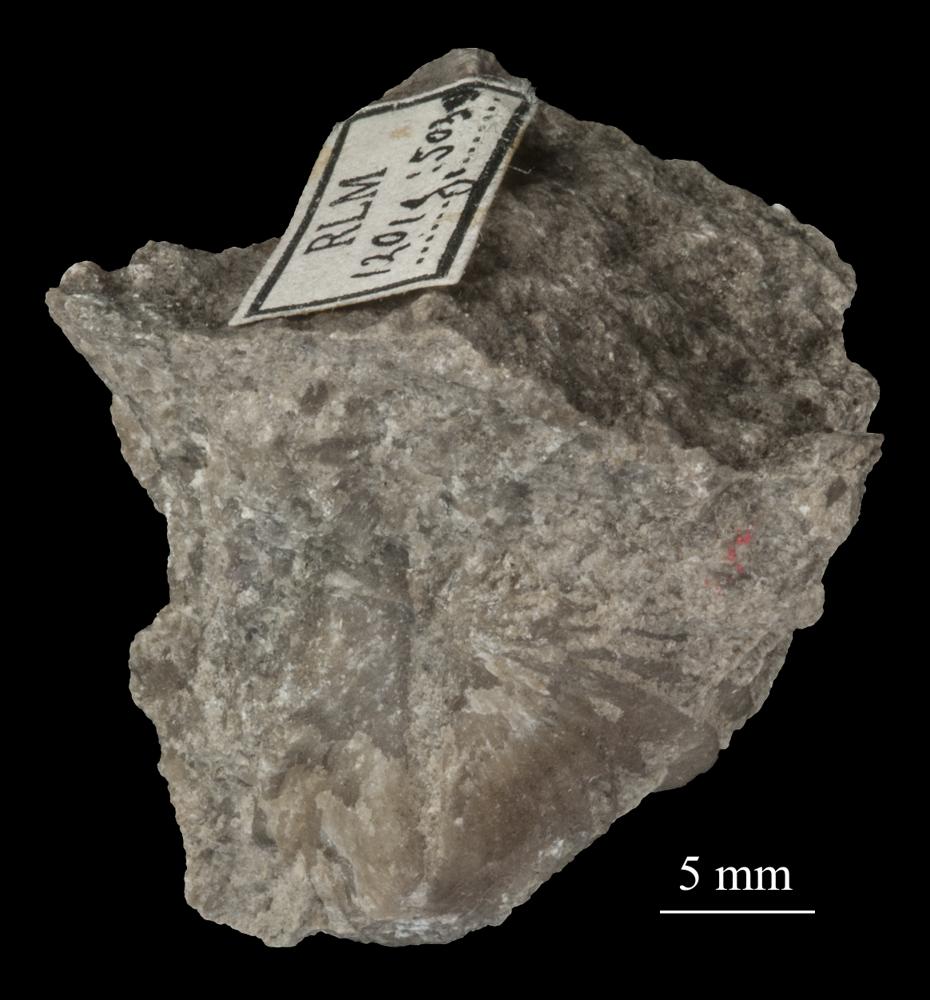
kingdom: Animalia
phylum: Brachiopoda
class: Rhynchonellata
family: Plectorthidae
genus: Platystrophia
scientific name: Platystrophia Terebratulites biforatus
